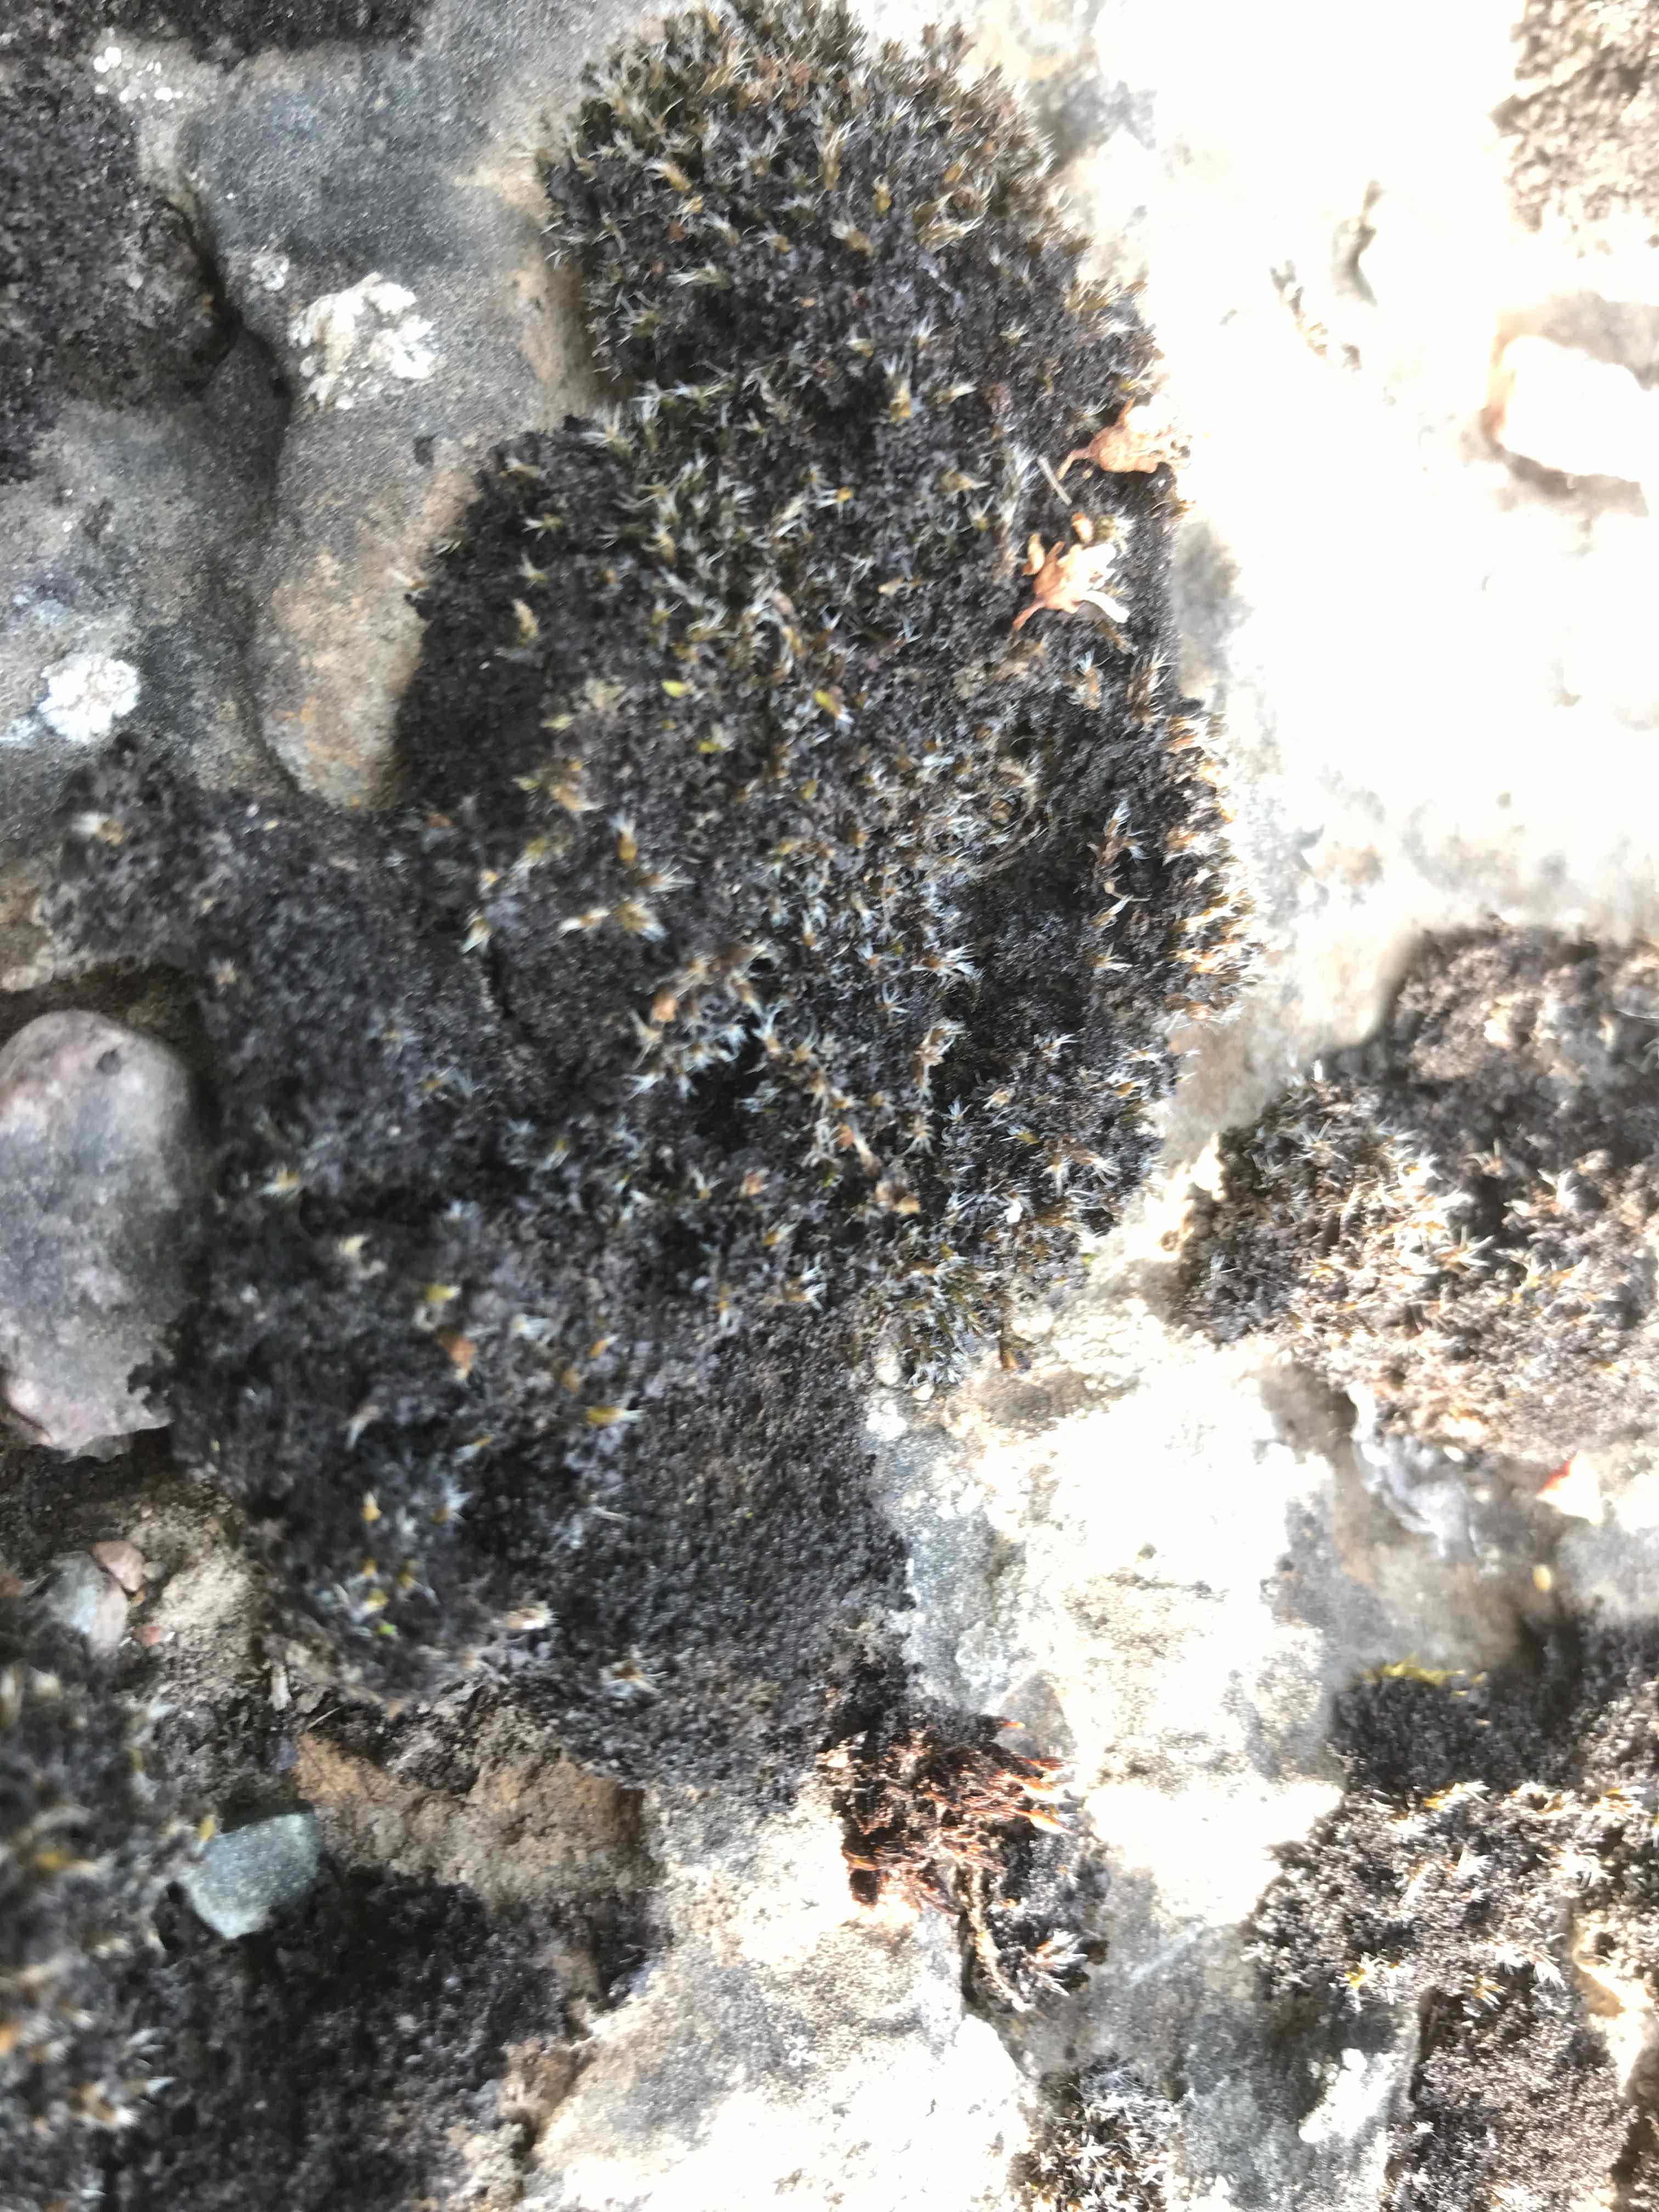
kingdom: Fungi
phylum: Ascomycota
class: Lecanoromycetes
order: Lecanorales
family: Parmeliaceae
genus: Lichen
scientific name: Lichen
